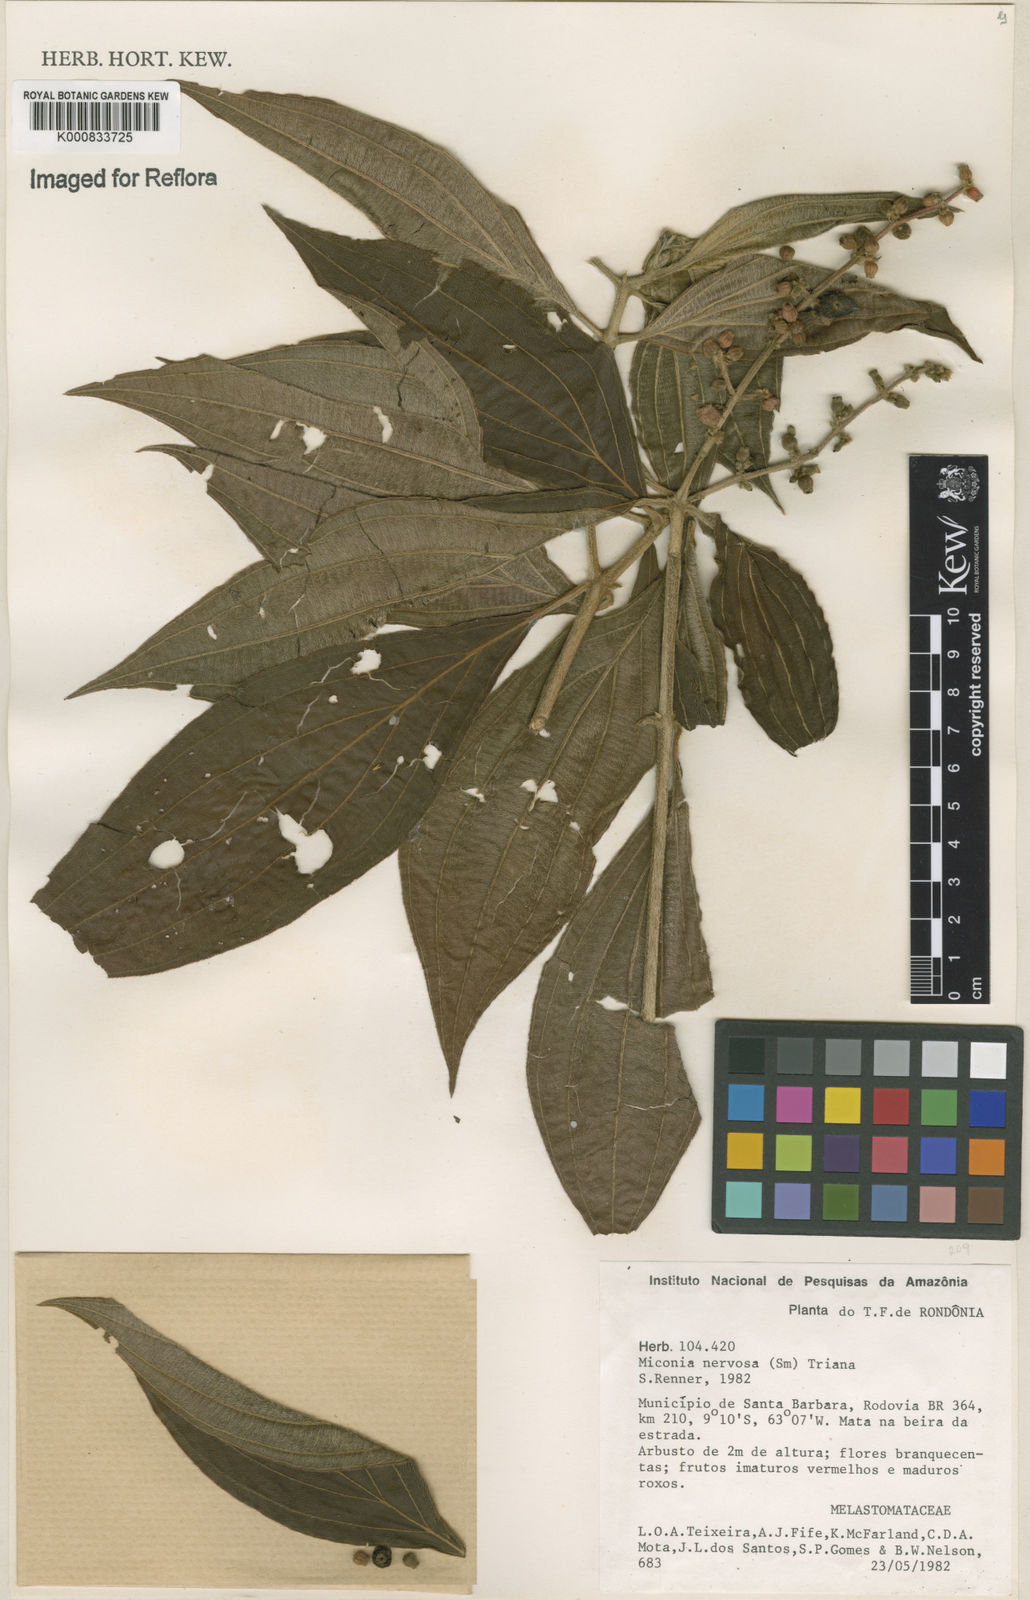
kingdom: Plantae
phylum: Tracheophyta
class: Magnoliopsida
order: Myrtales
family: Melastomataceae
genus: Miconia
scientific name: Miconia nervosa
